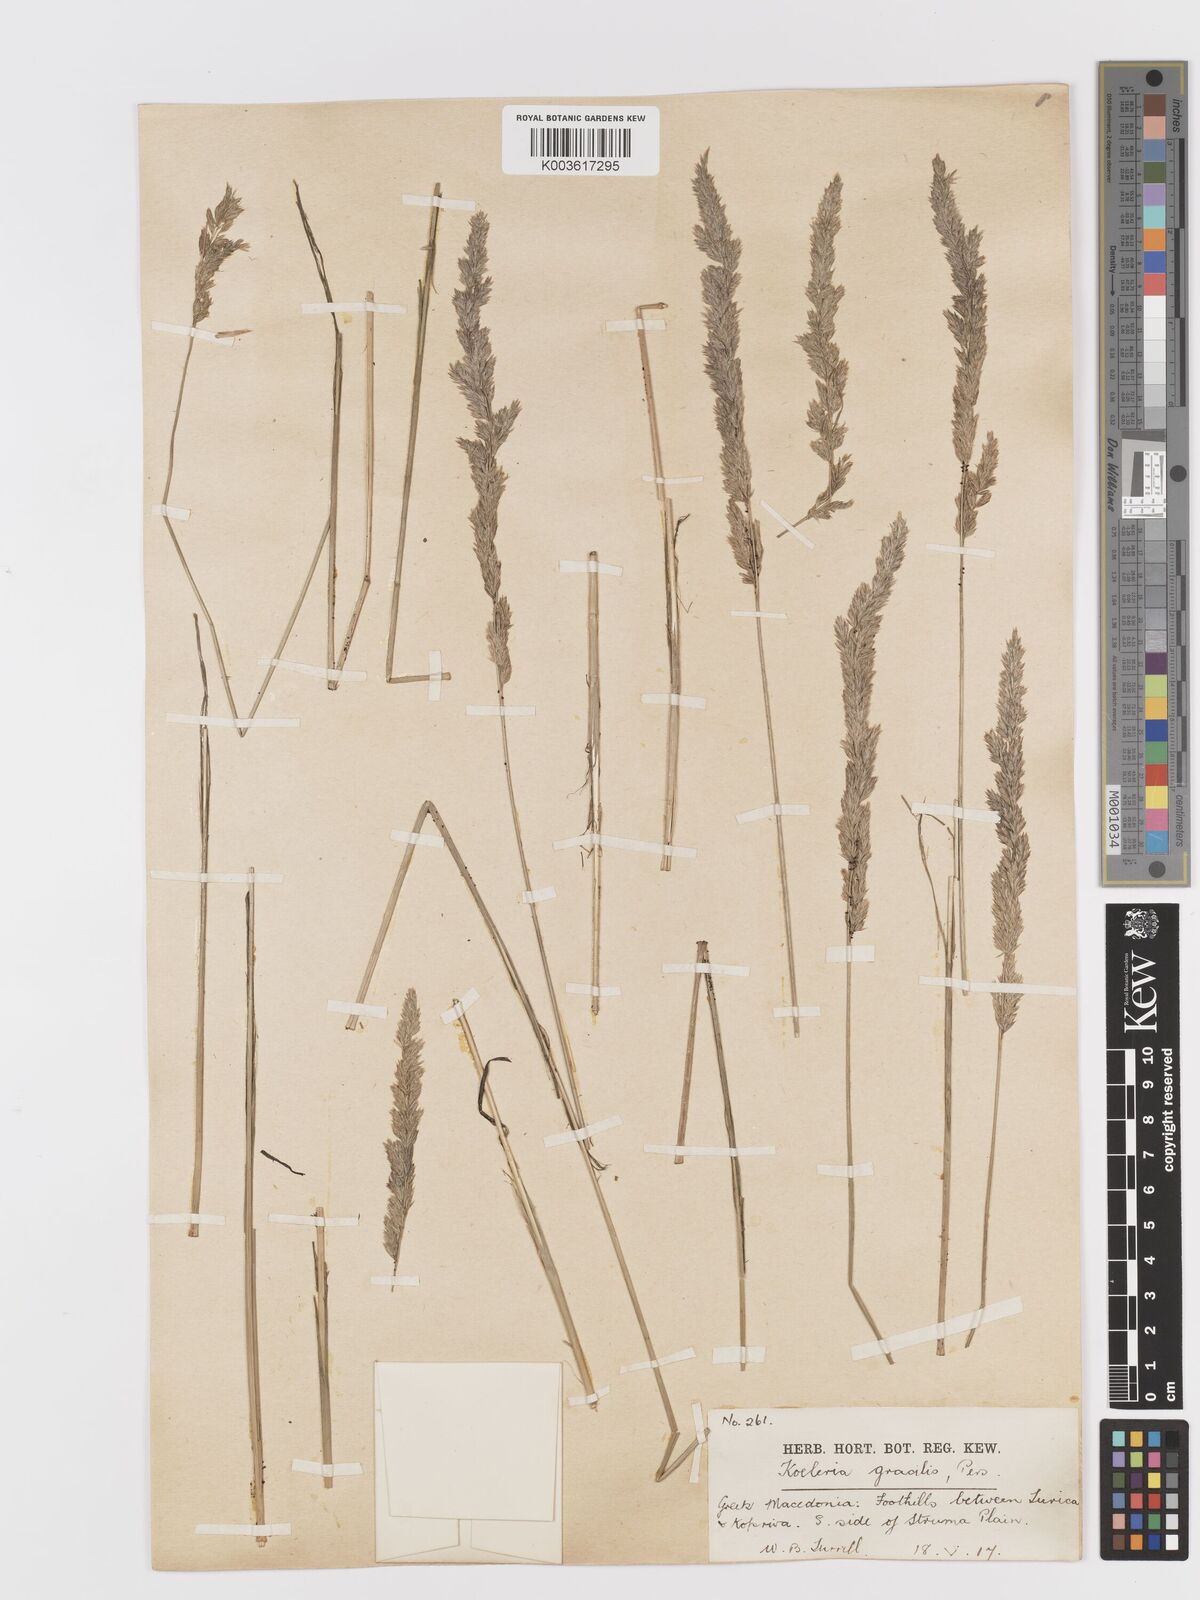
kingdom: Plantae
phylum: Tracheophyta
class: Liliopsida
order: Poales
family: Poaceae
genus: Koeleria
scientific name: Koeleria macrantha
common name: Crested hair-grass
